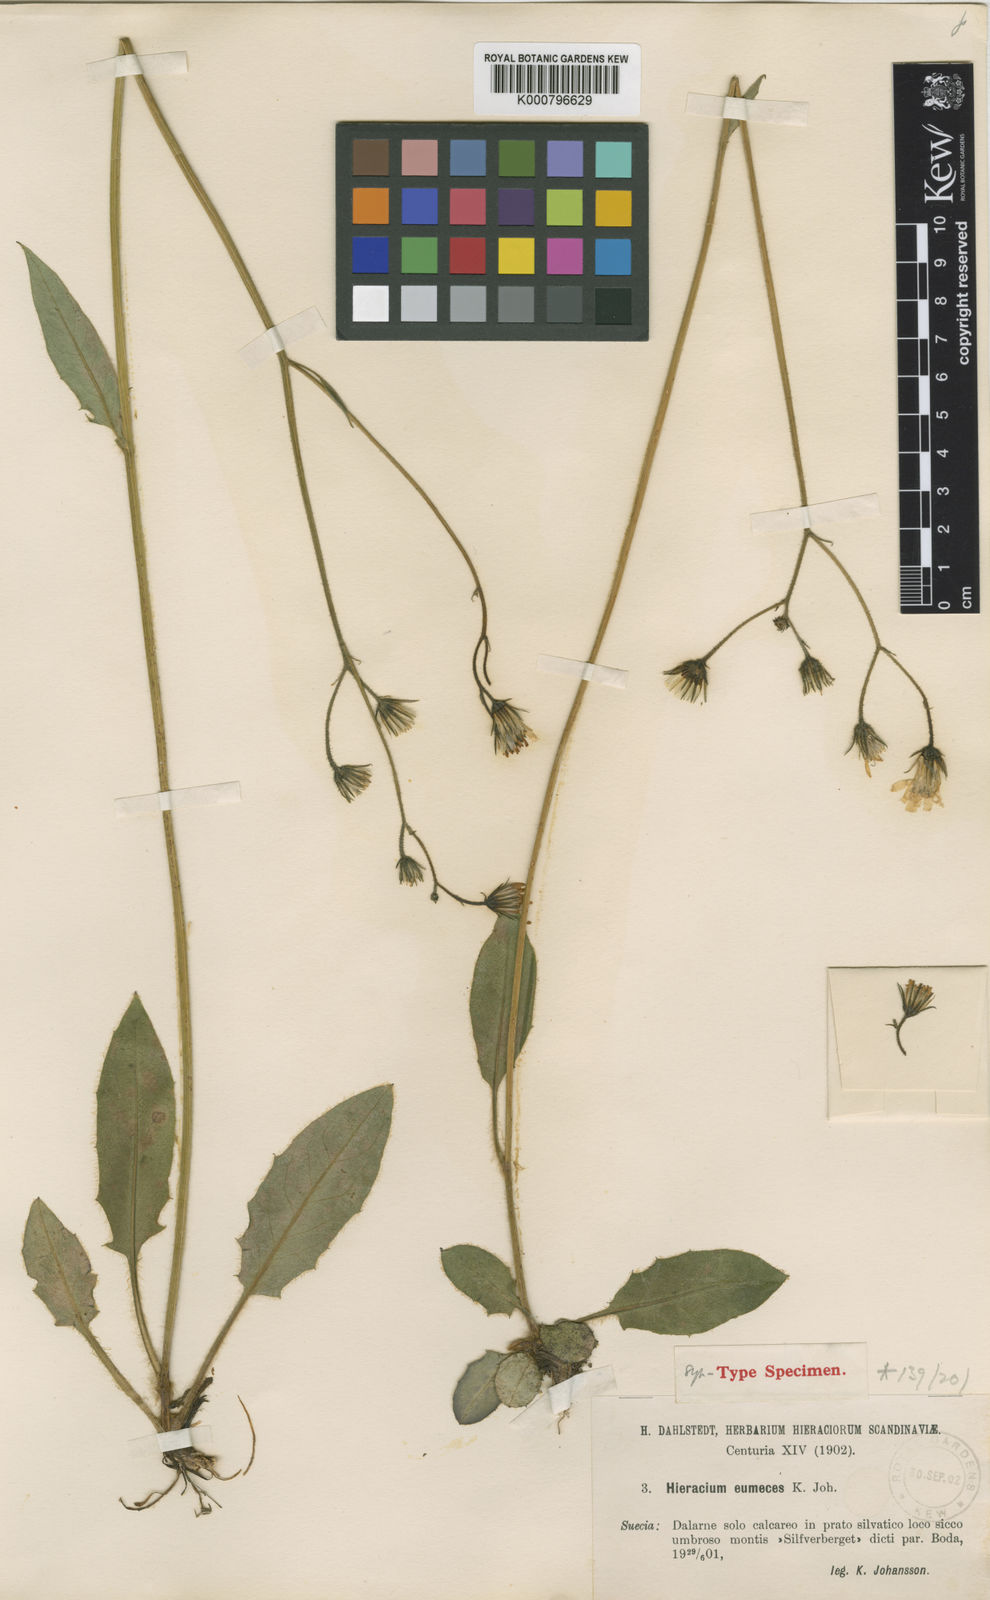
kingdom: Plantae
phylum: Tracheophyta
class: Magnoliopsida
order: Asterales
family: Asteraceae
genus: Hieracium
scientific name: Hieracium murorum
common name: Wall hawkweed
